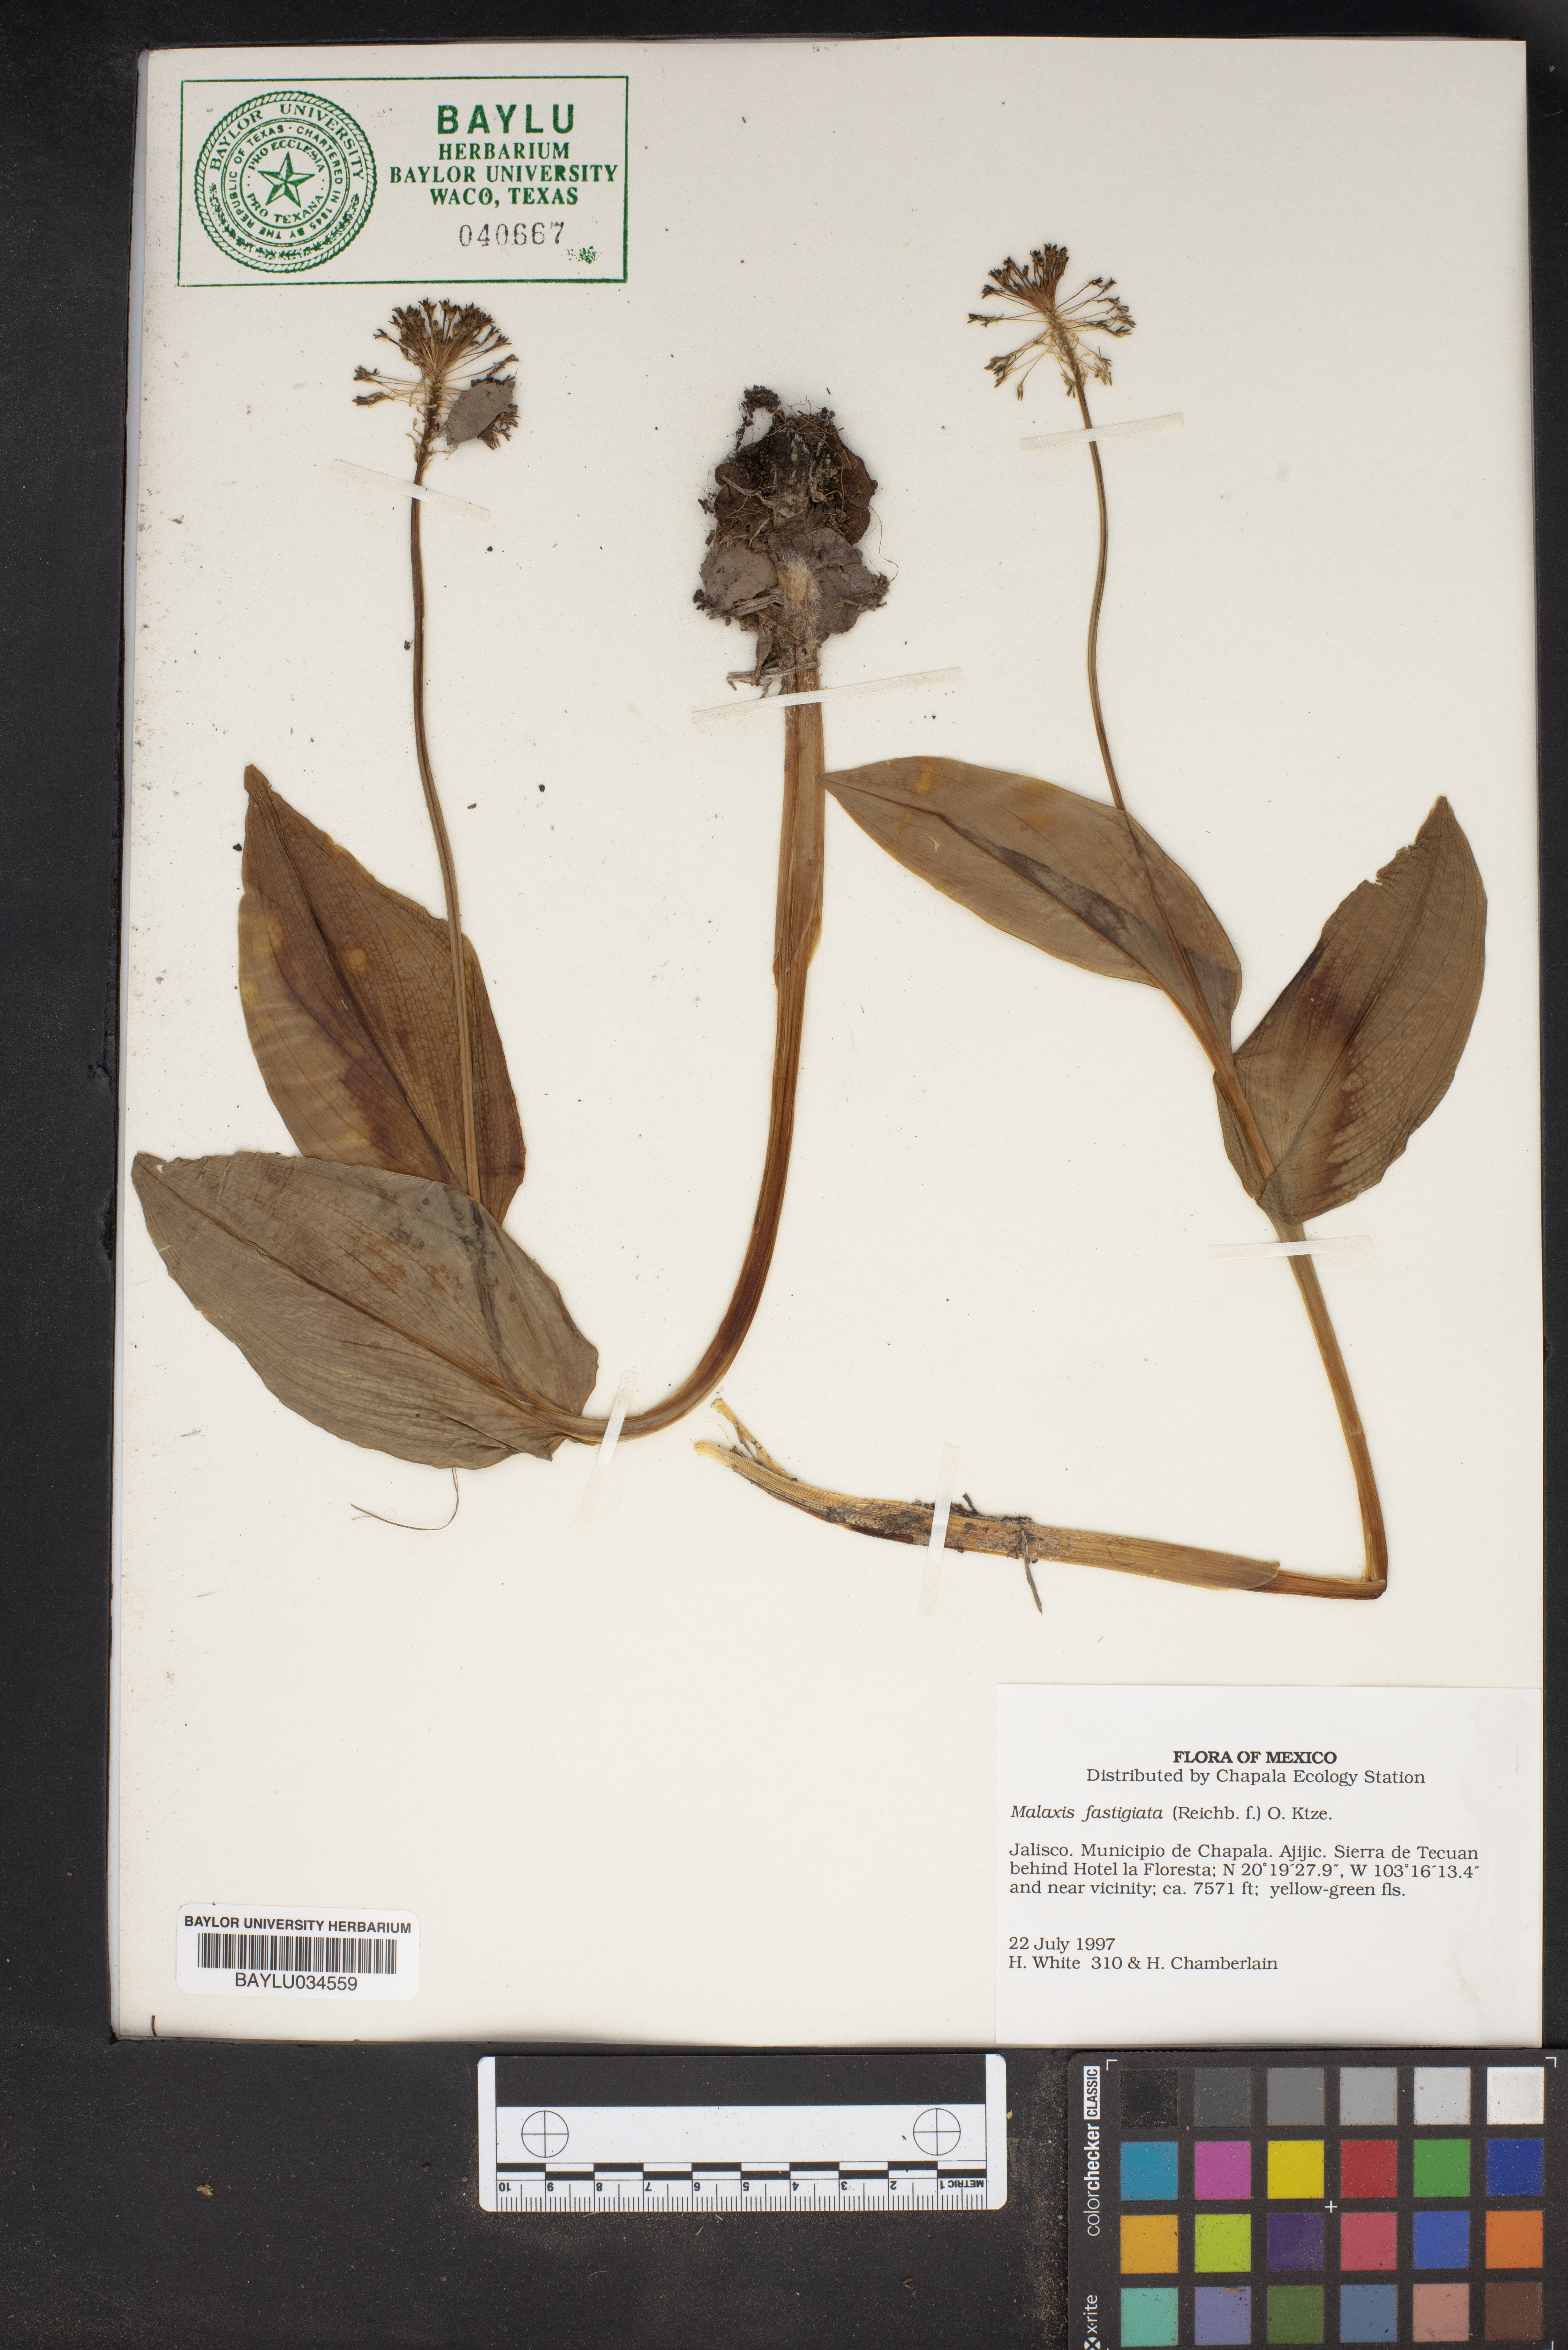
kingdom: Plantae
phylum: Tracheophyta
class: Liliopsida
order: Asparagales
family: Orchidaceae
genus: Malaxis
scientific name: Malaxis fastigiata
